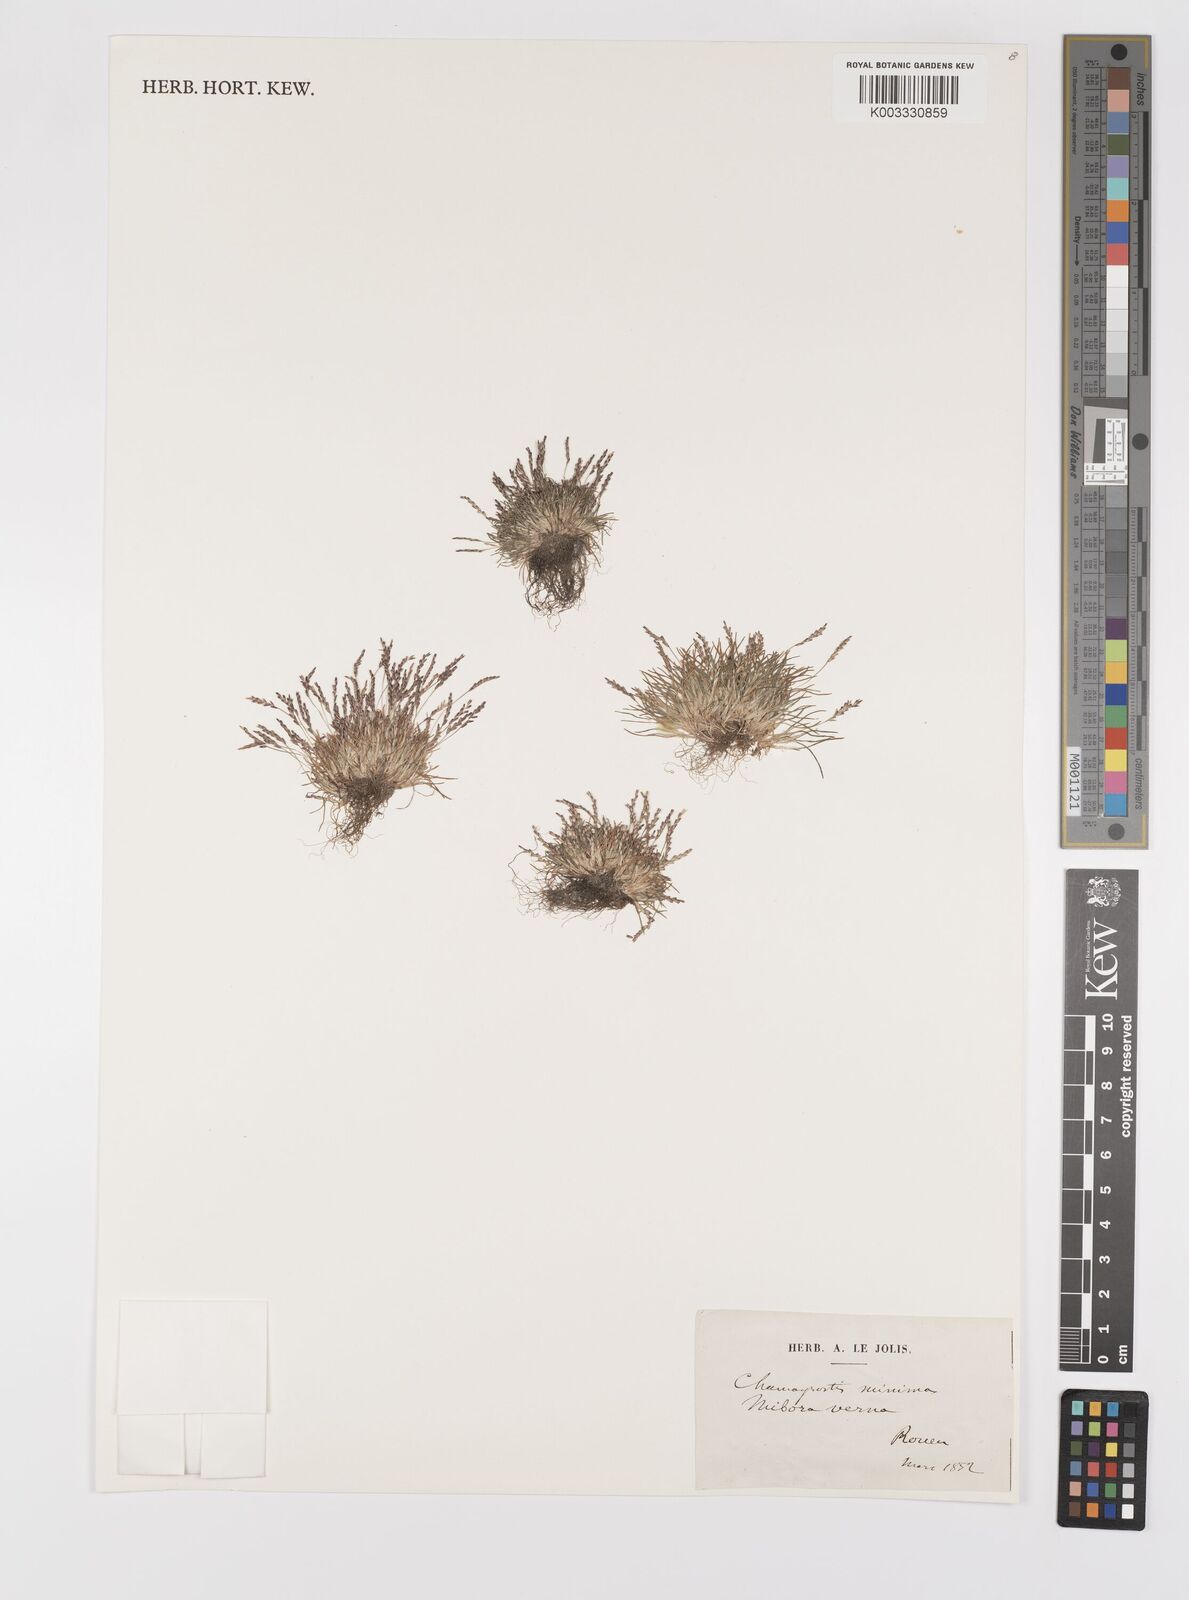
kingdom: Plantae
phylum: Tracheophyta
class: Liliopsida
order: Poales
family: Poaceae
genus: Mibora
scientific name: Mibora minima
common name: Early sand-grass
